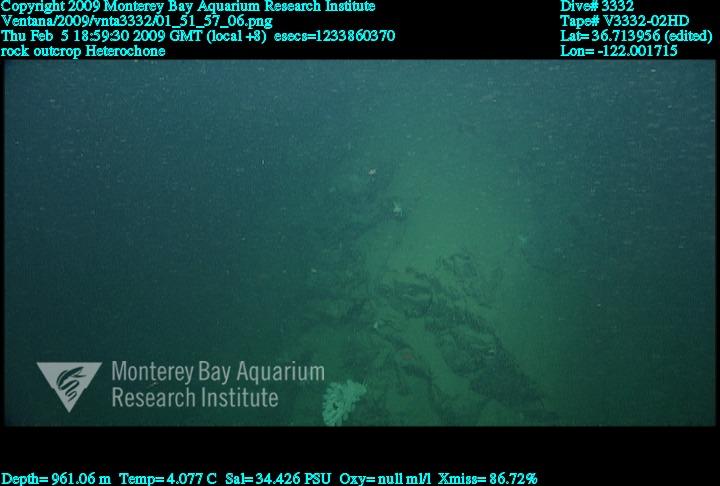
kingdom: Animalia
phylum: Porifera
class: Hexactinellida
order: Sceptrulophora
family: Aphrocallistidae
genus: Heterochone
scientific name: Heterochone
